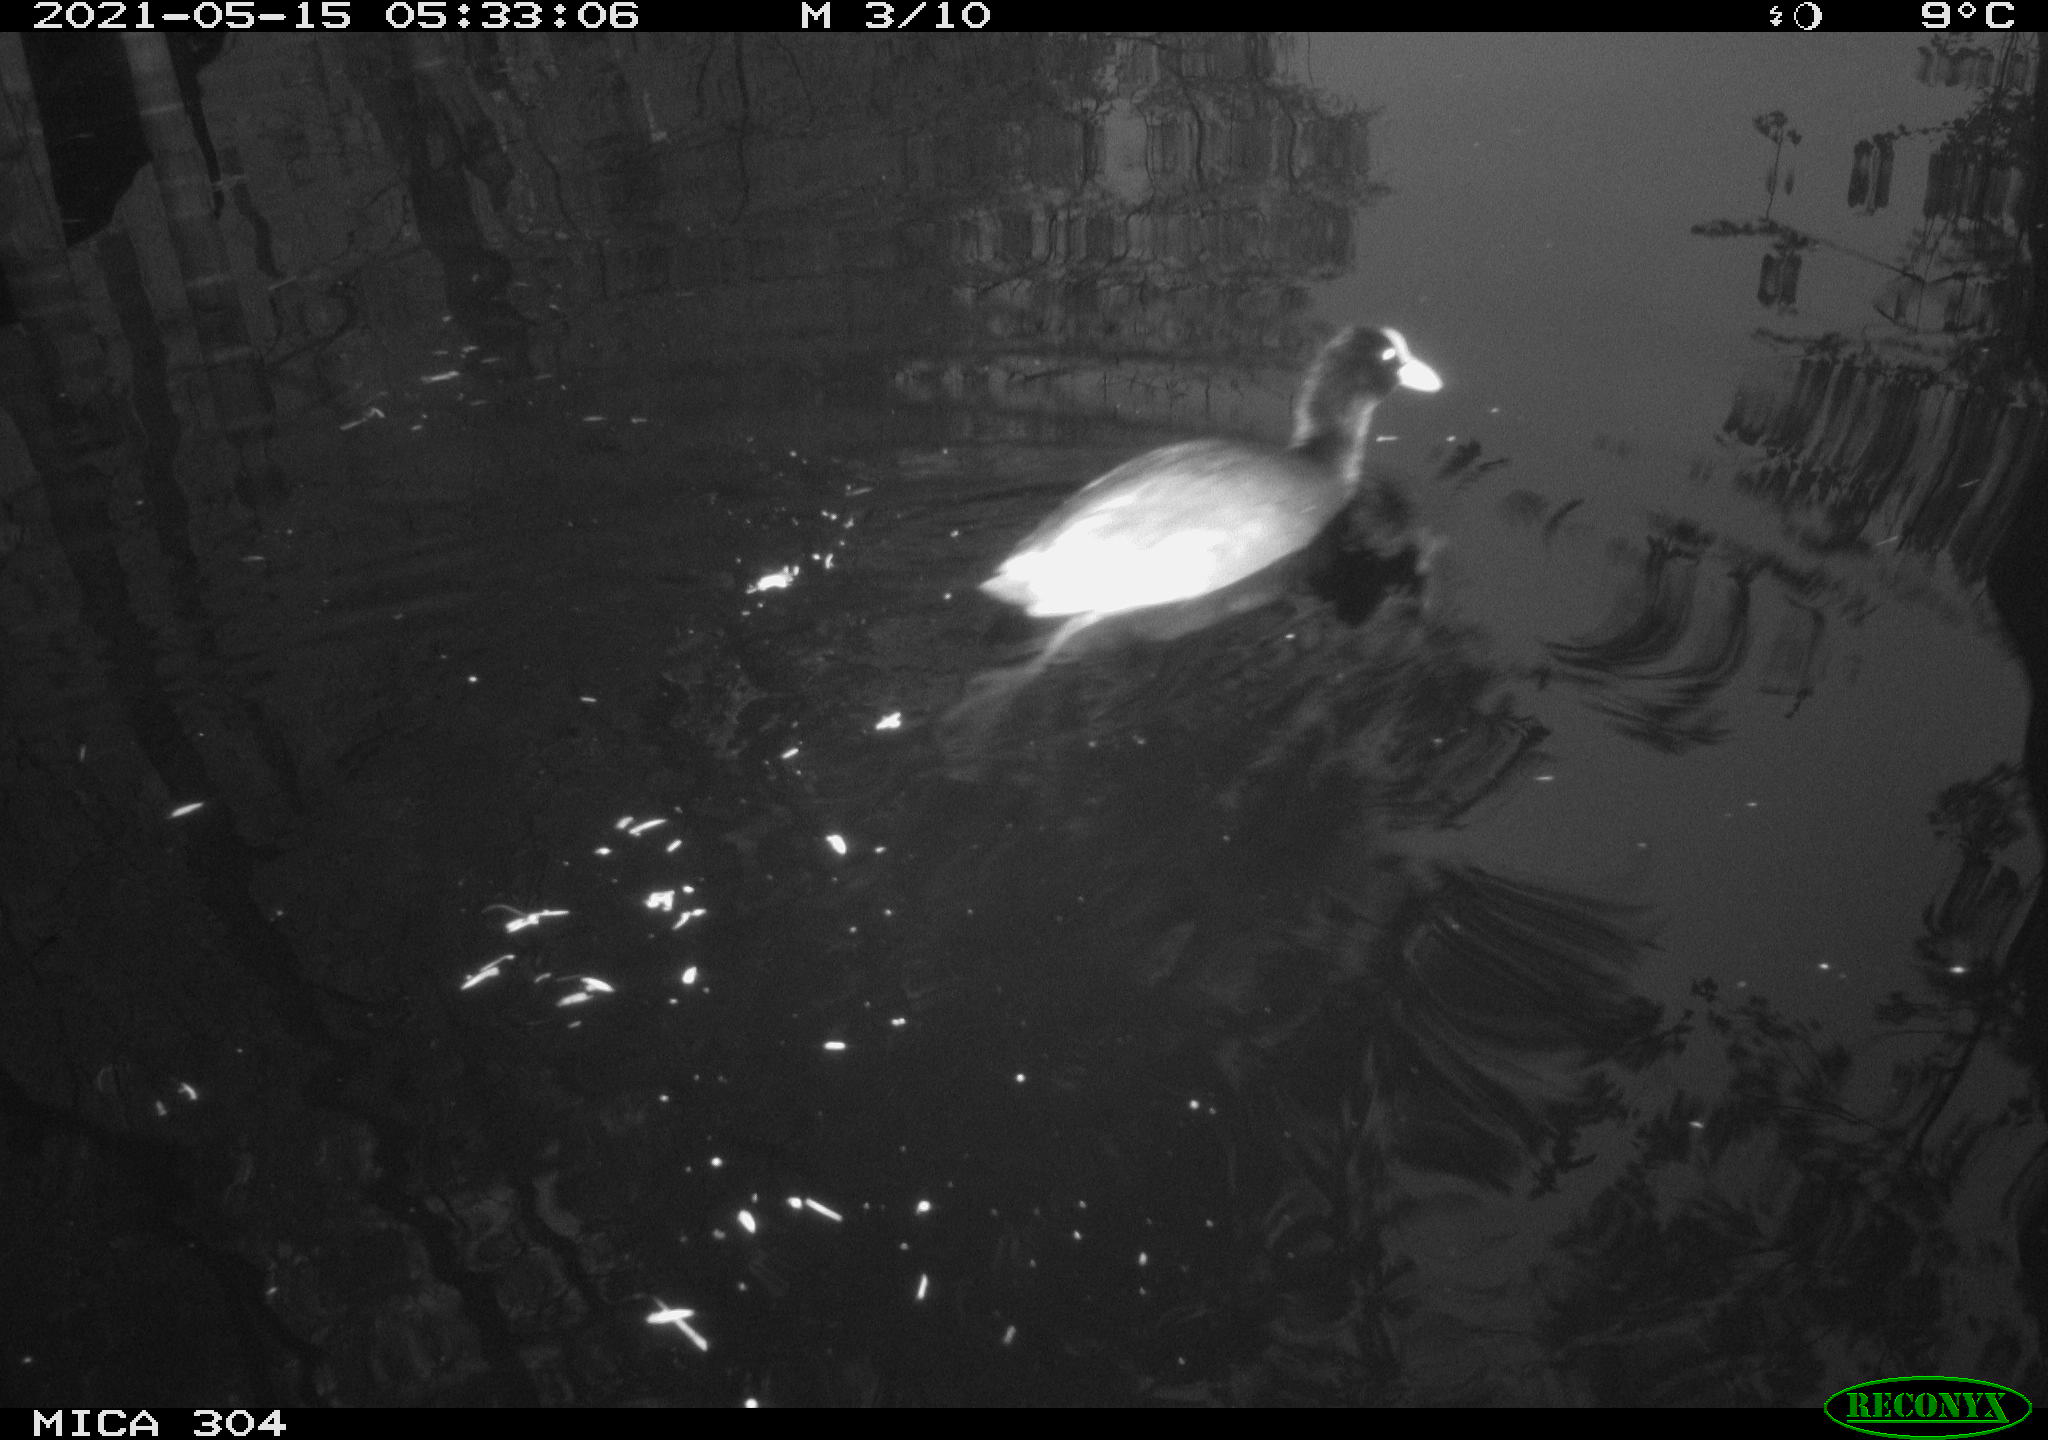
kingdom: Animalia
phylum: Chordata
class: Aves
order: Gruiformes
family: Rallidae
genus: Fulica
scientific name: Fulica atra
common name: Eurasian coot
